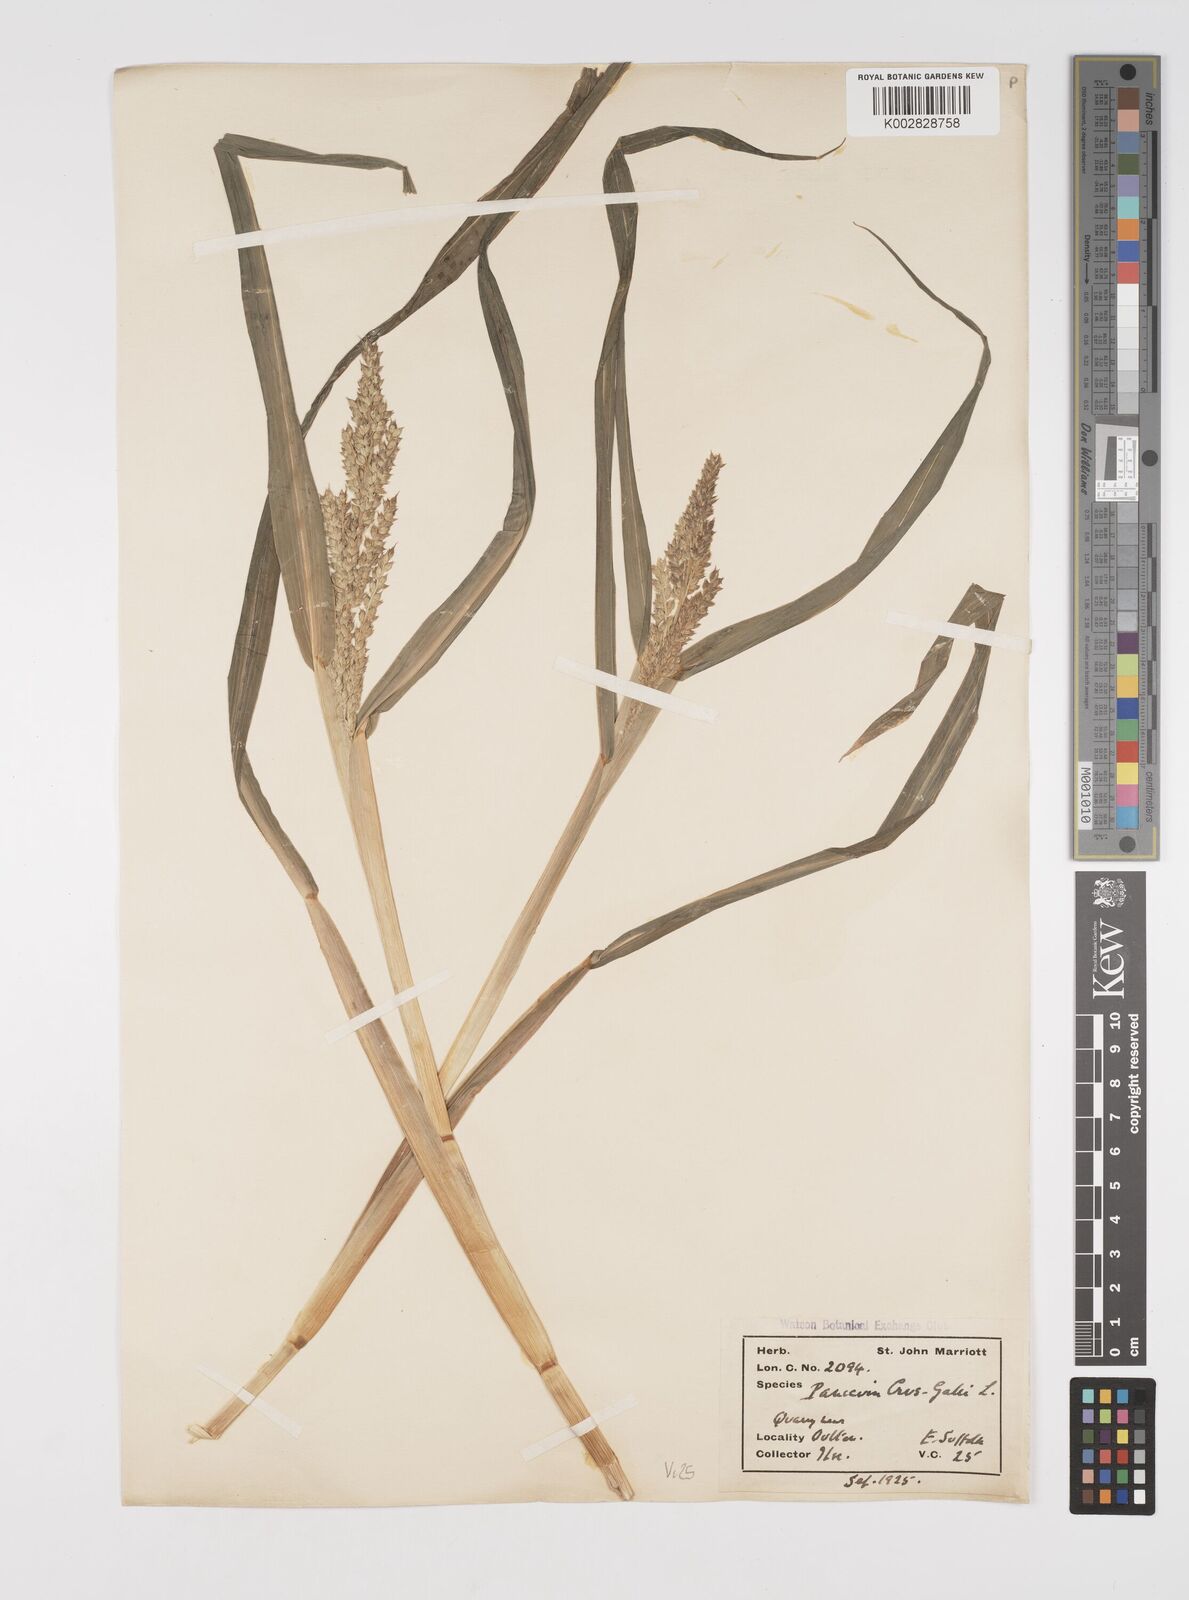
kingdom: Plantae
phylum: Tracheophyta
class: Liliopsida
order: Poales
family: Poaceae
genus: Echinochloa
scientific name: Echinochloa crus-galli
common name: Cockspur
